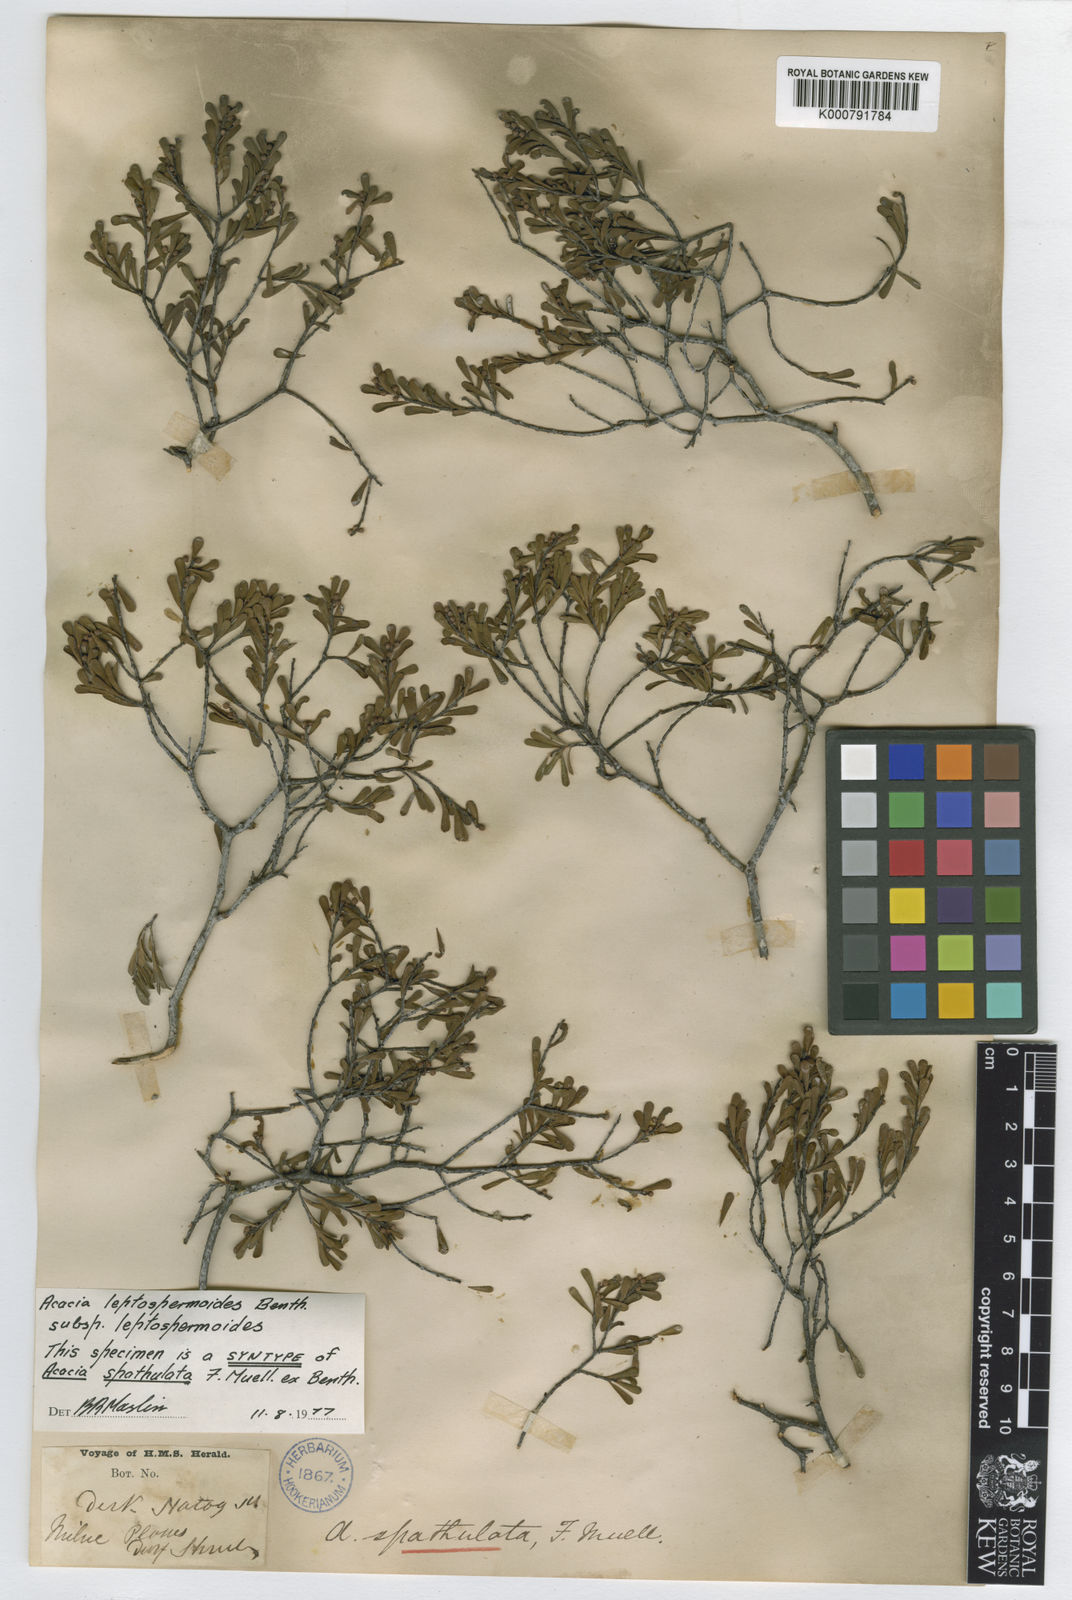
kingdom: Plantae
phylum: Tracheophyta
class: Magnoliopsida
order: Fabales
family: Fabaceae
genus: Acacia
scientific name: Acacia spathulifolia
